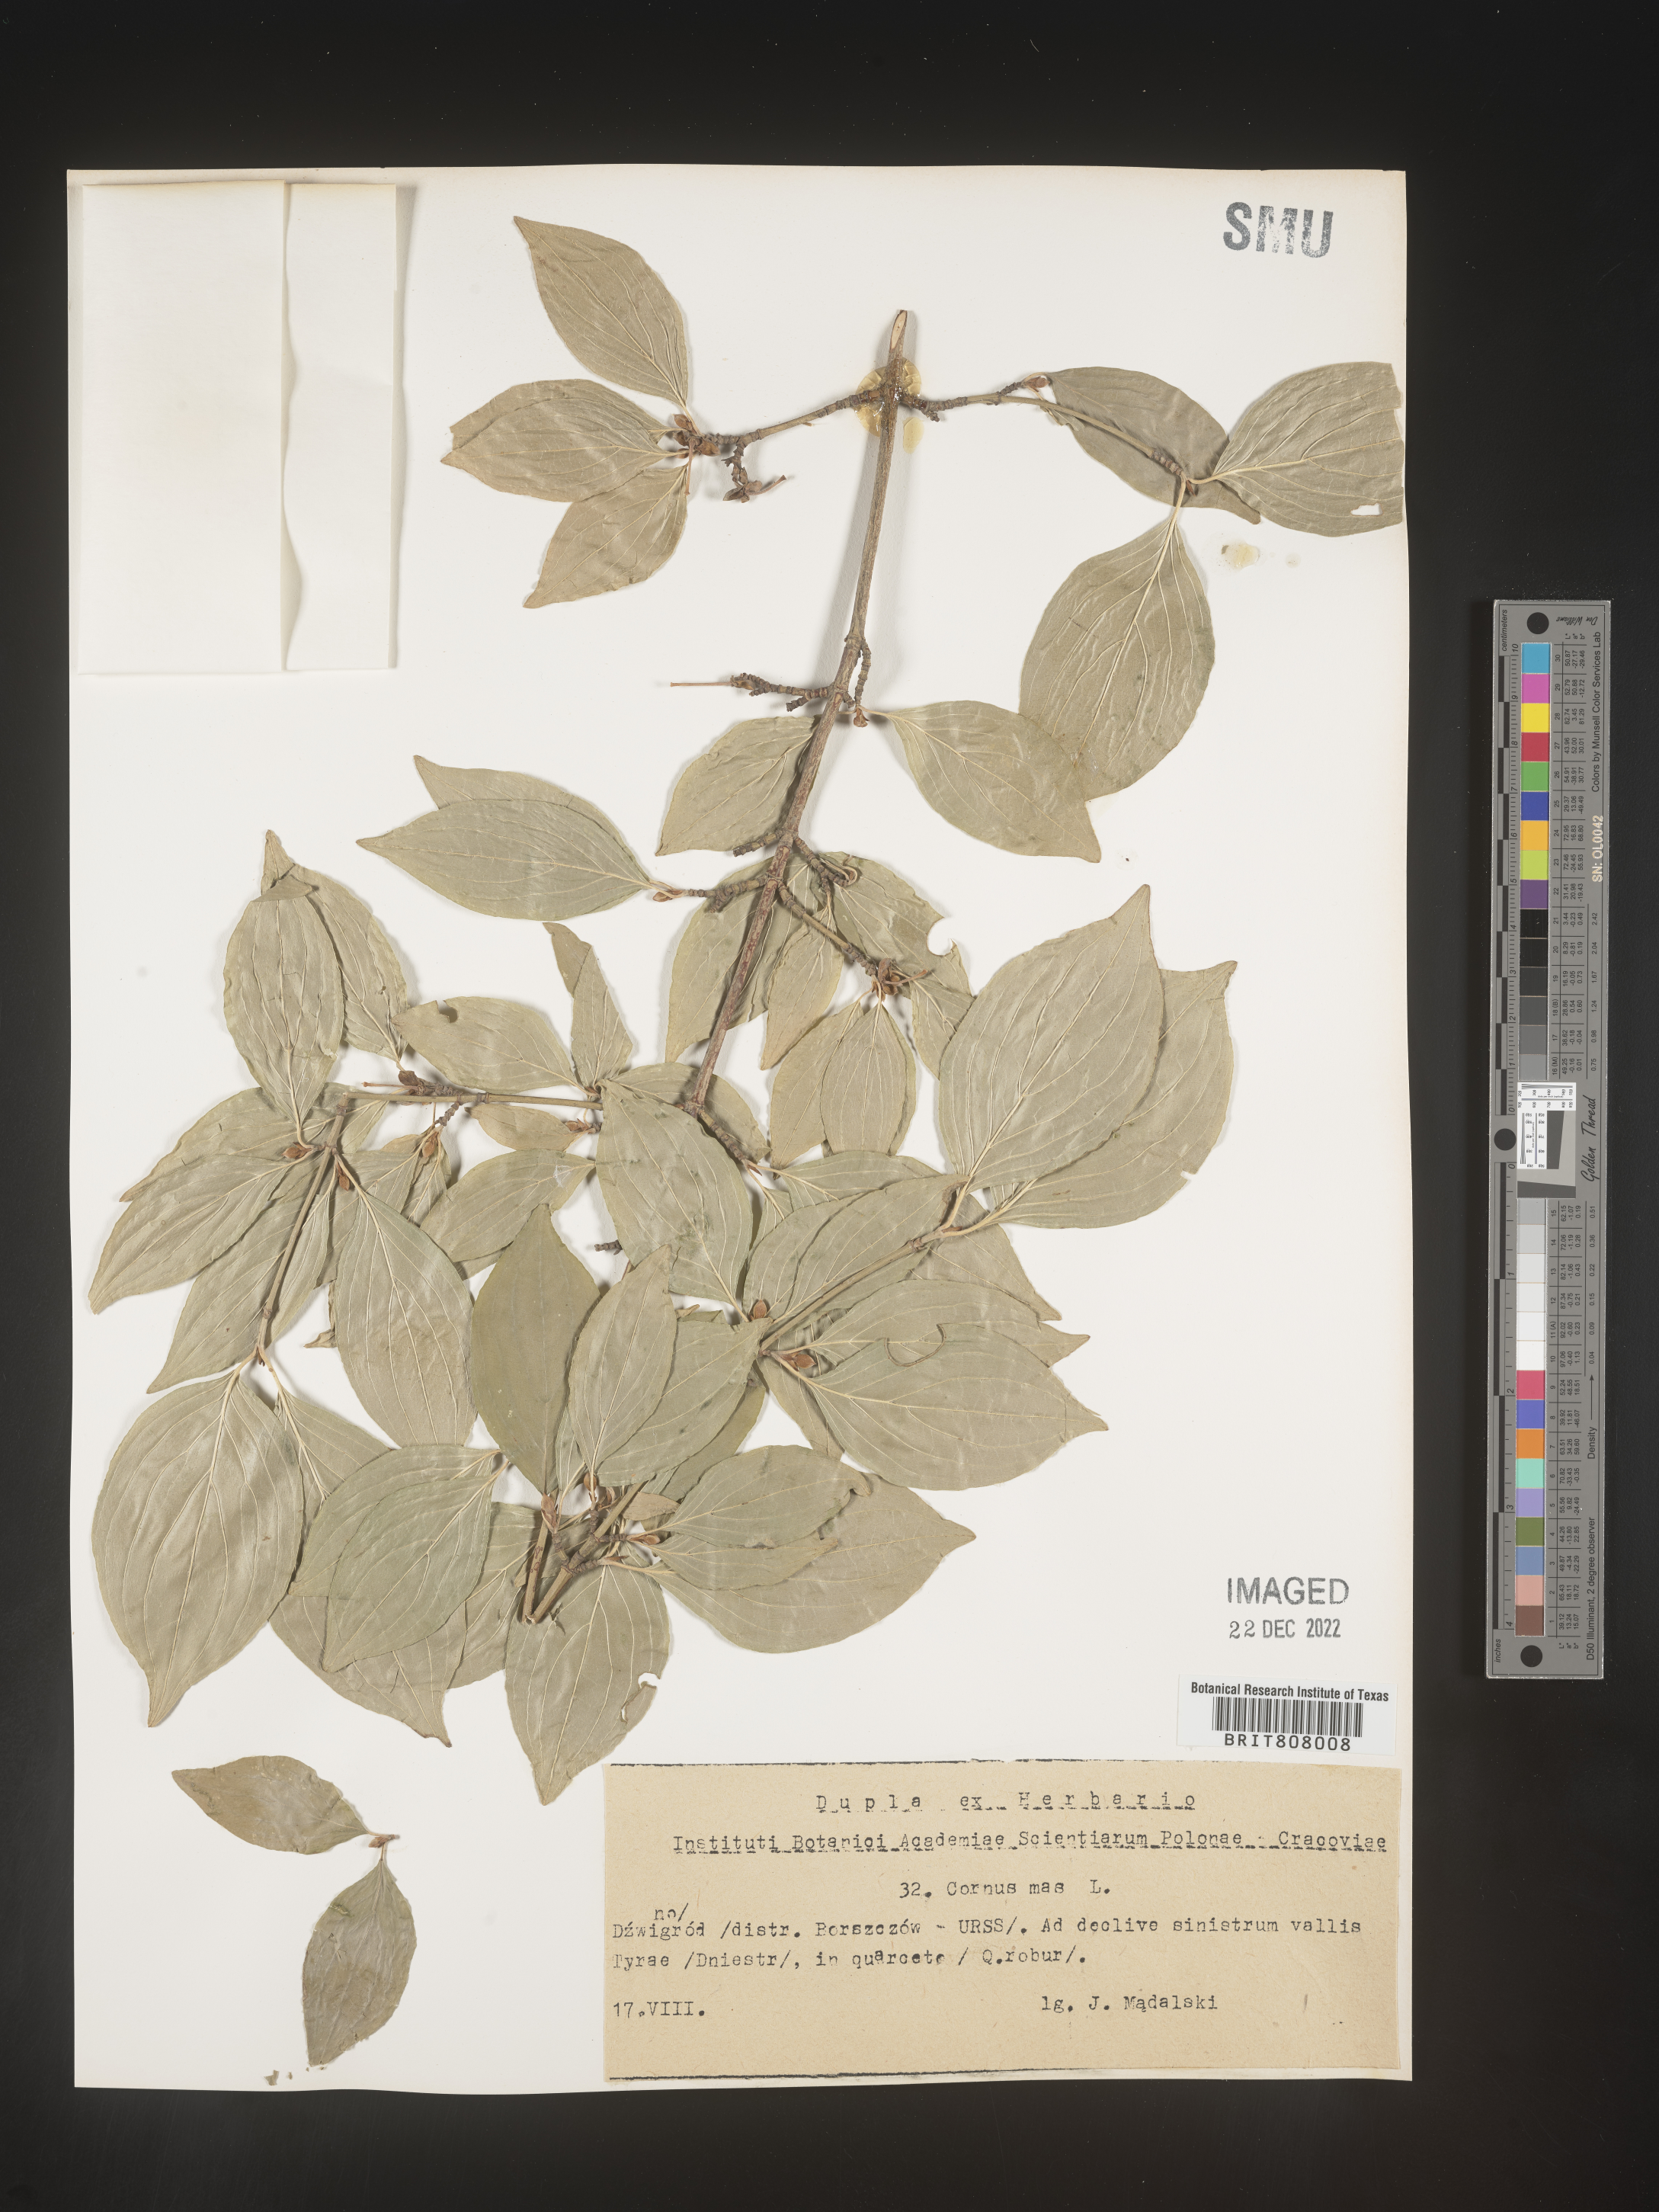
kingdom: Plantae
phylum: Tracheophyta
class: Magnoliopsida
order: Cornales
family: Cornaceae
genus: Cornus
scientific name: Cornus
